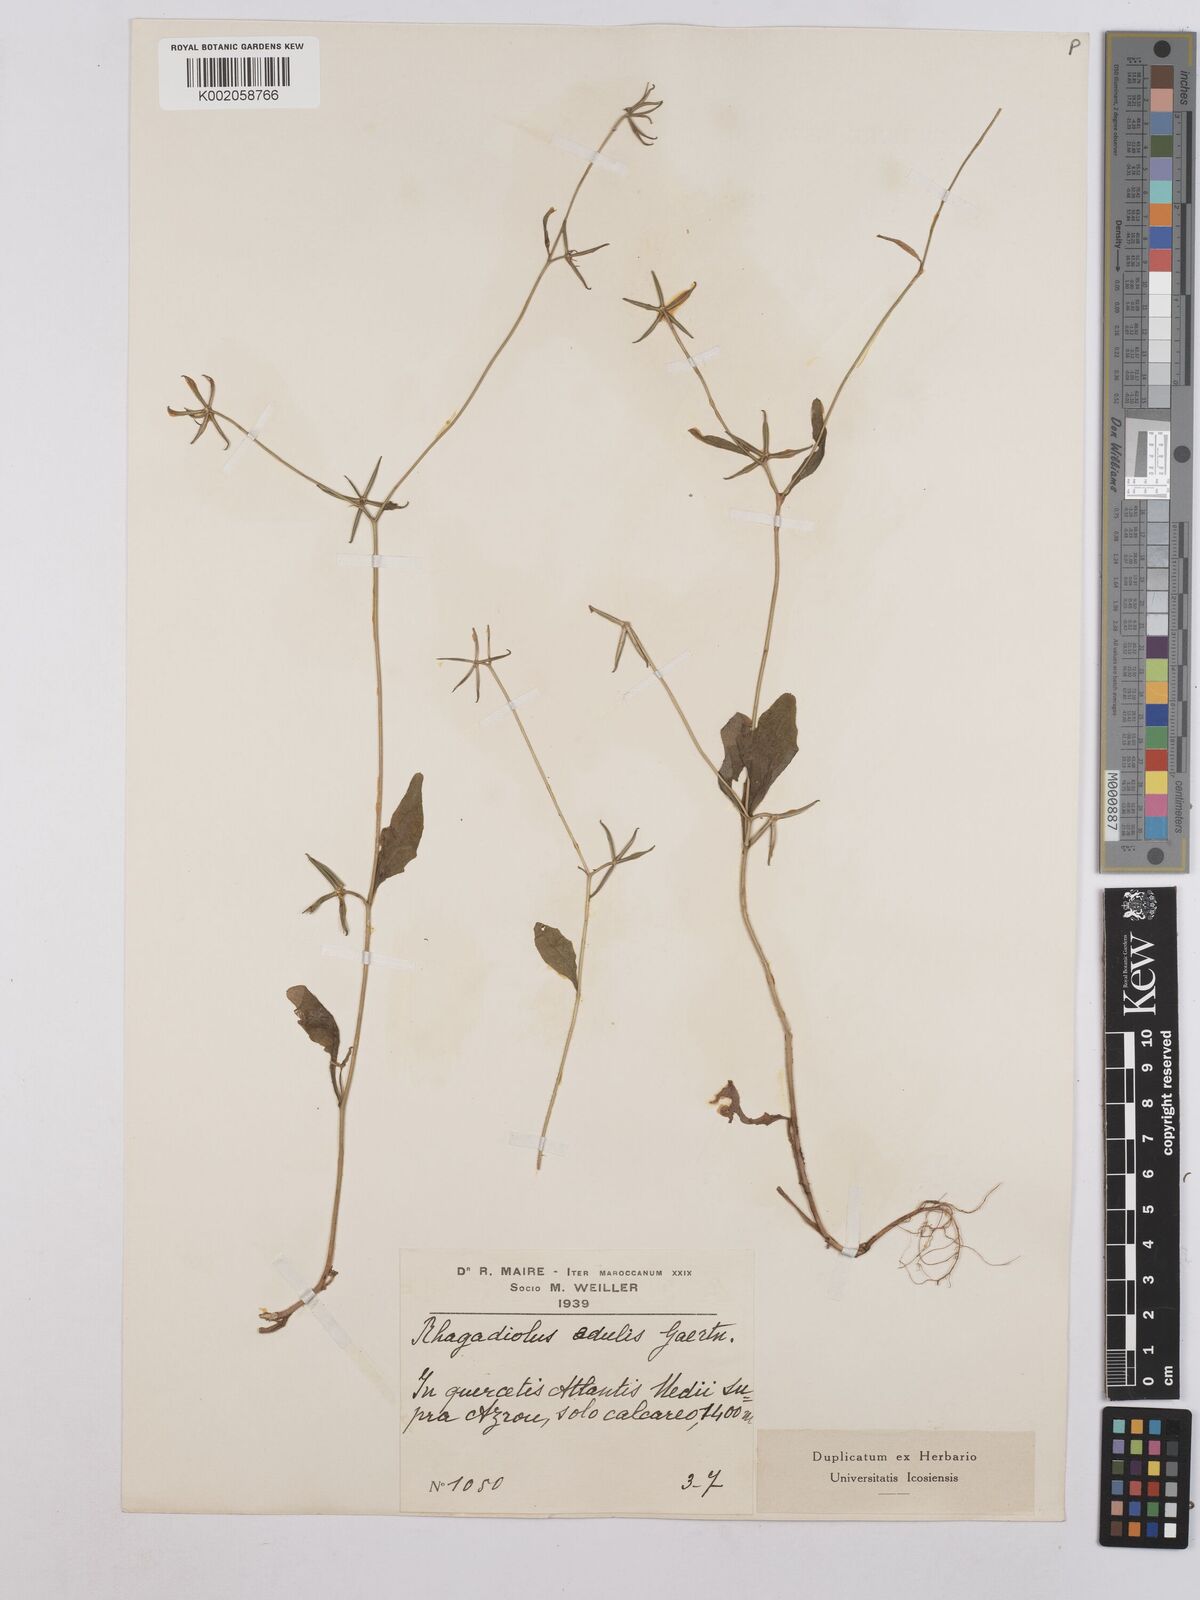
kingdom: Plantae
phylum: Tracheophyta
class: Magnoliopsida
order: Asterales
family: Asteraceae
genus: Rhagadiolus
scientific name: Rhagadiolus edulis
